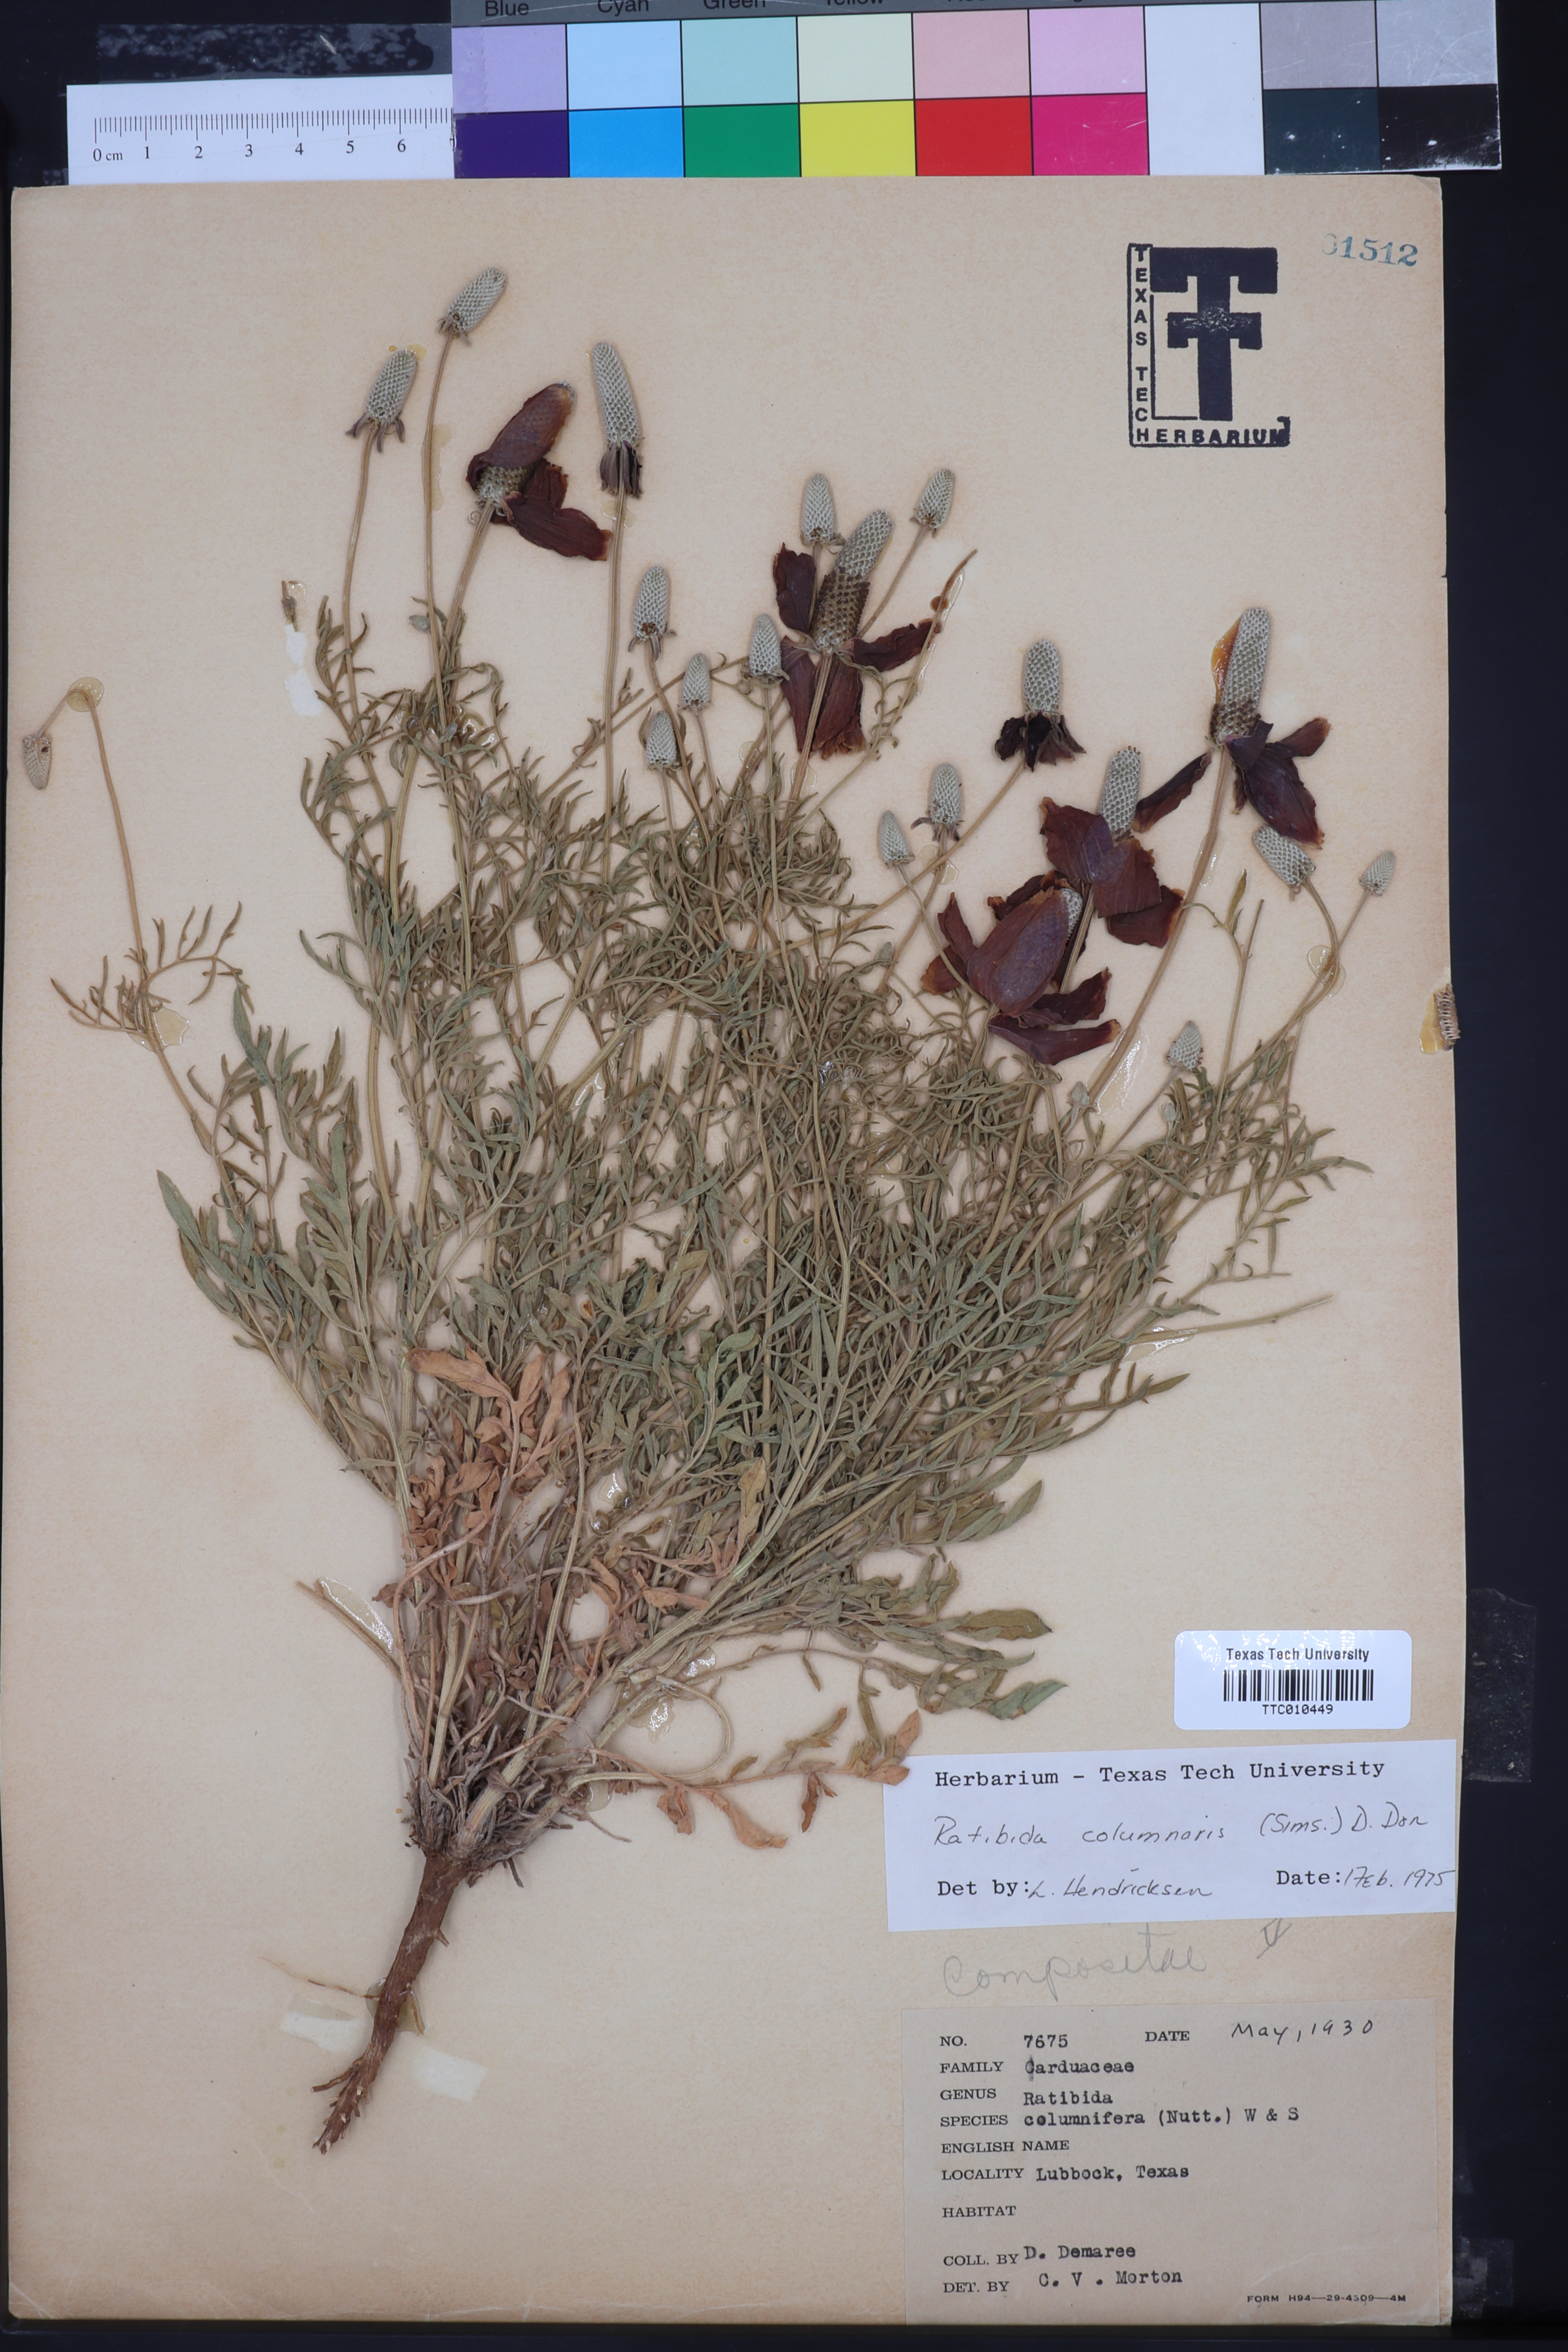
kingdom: Plantae
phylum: Tracheophyta
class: Magnoliopsida
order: Asterales
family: Asteraceae
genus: Ratibida
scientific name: Ratibida columnifera
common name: Prairie coneflower
